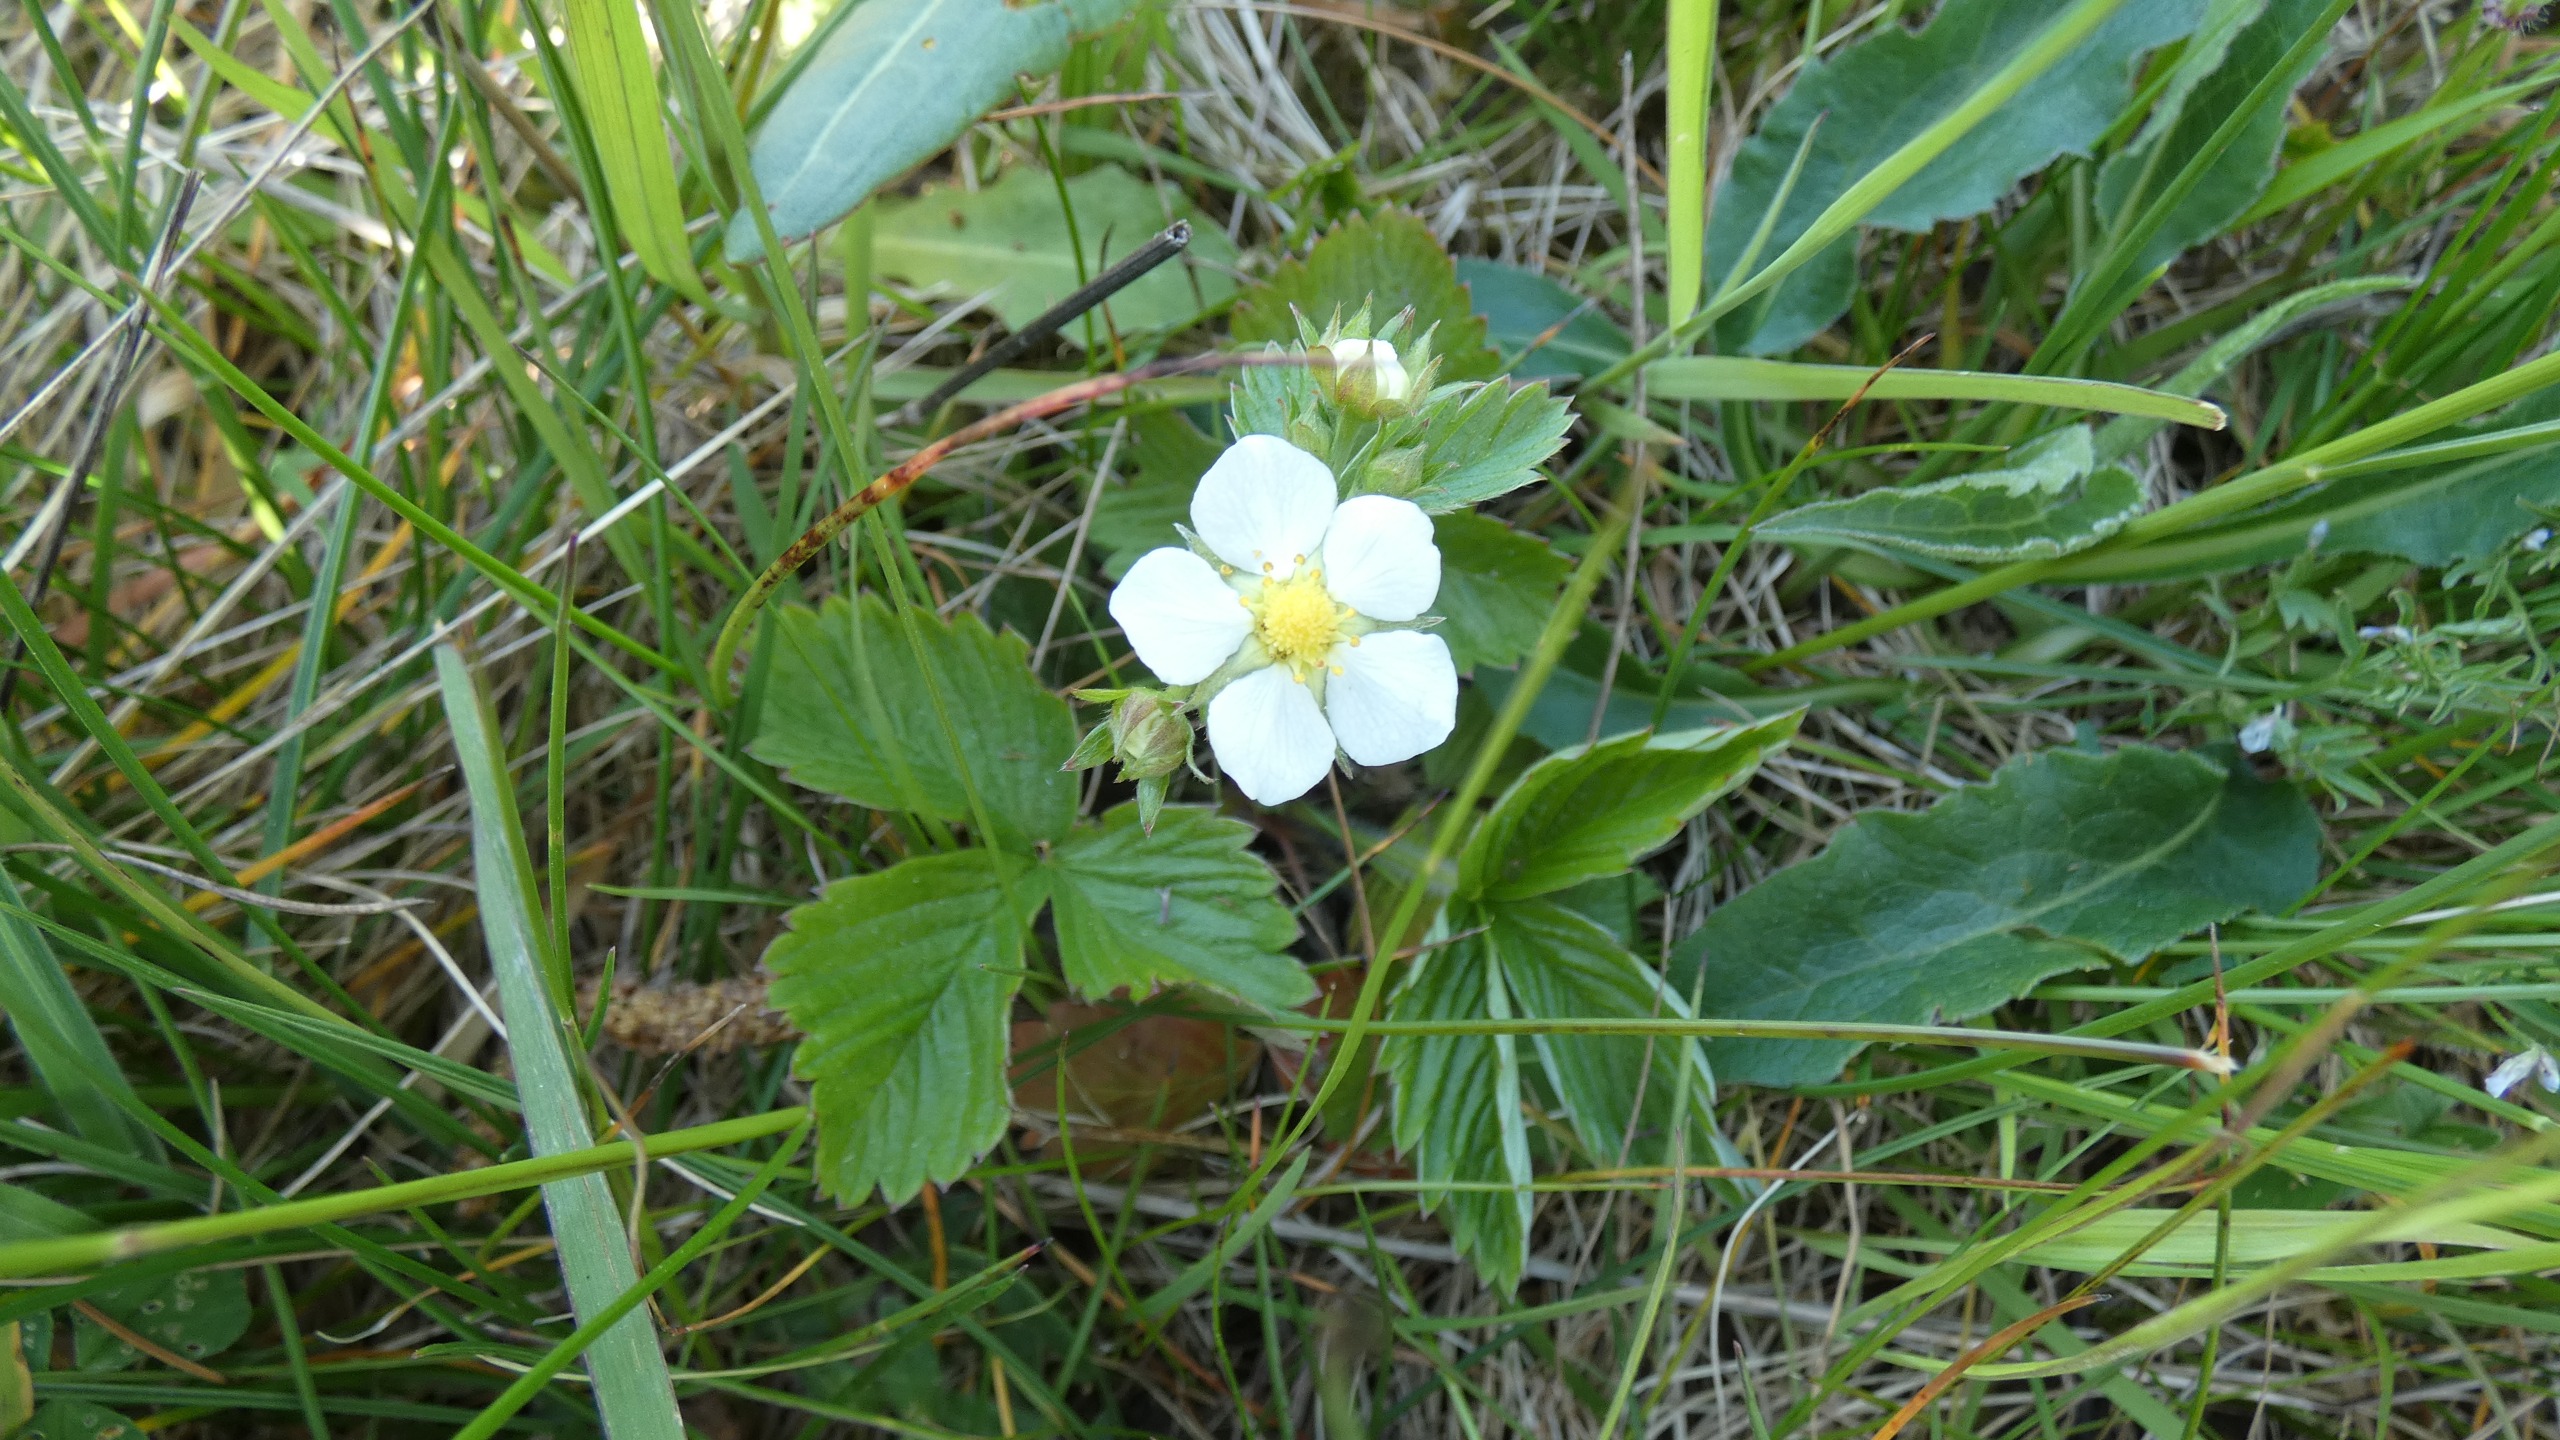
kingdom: Plantae
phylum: Tracheophyta
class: Magnoliopsida
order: Rosales
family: Rosaceae
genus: Fragaria
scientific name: Fragaria vesca
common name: Skov-jordbær
